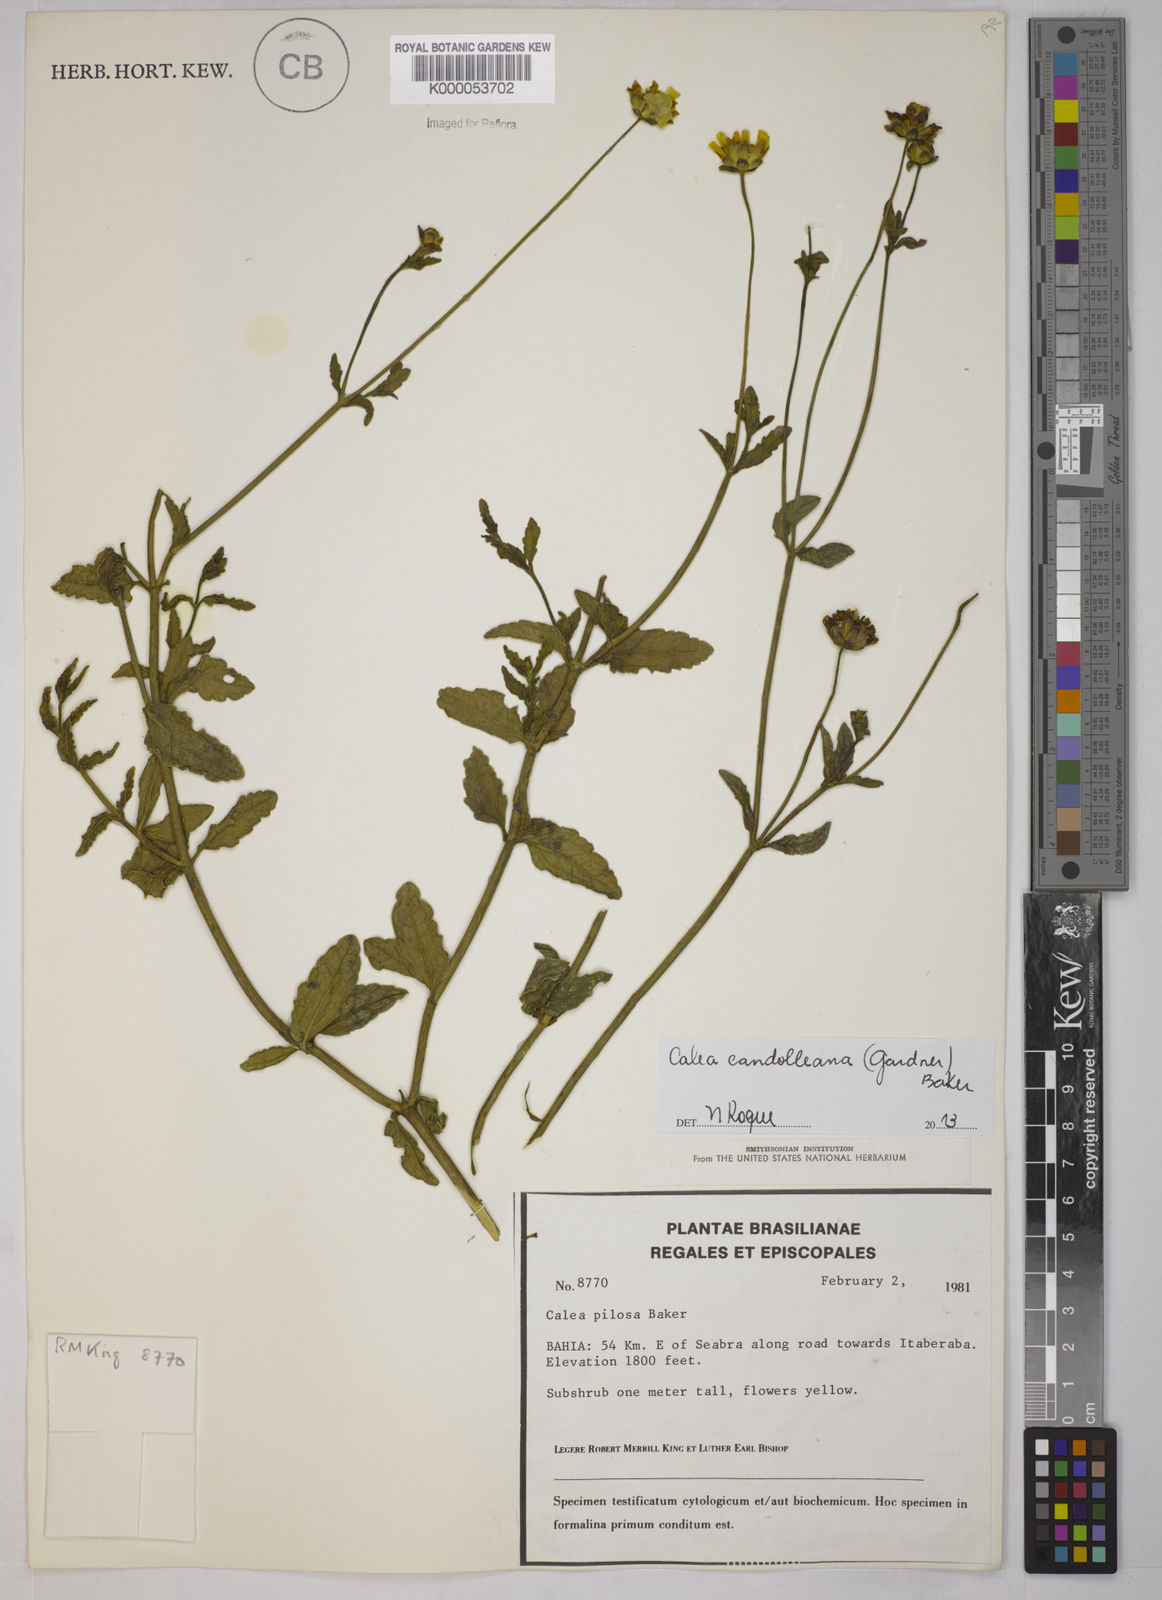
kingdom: Plantae
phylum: Tracheophyta
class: Magnoliopsida
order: Asterales
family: Asteraceae
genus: Calea
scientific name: Calea pilosa
